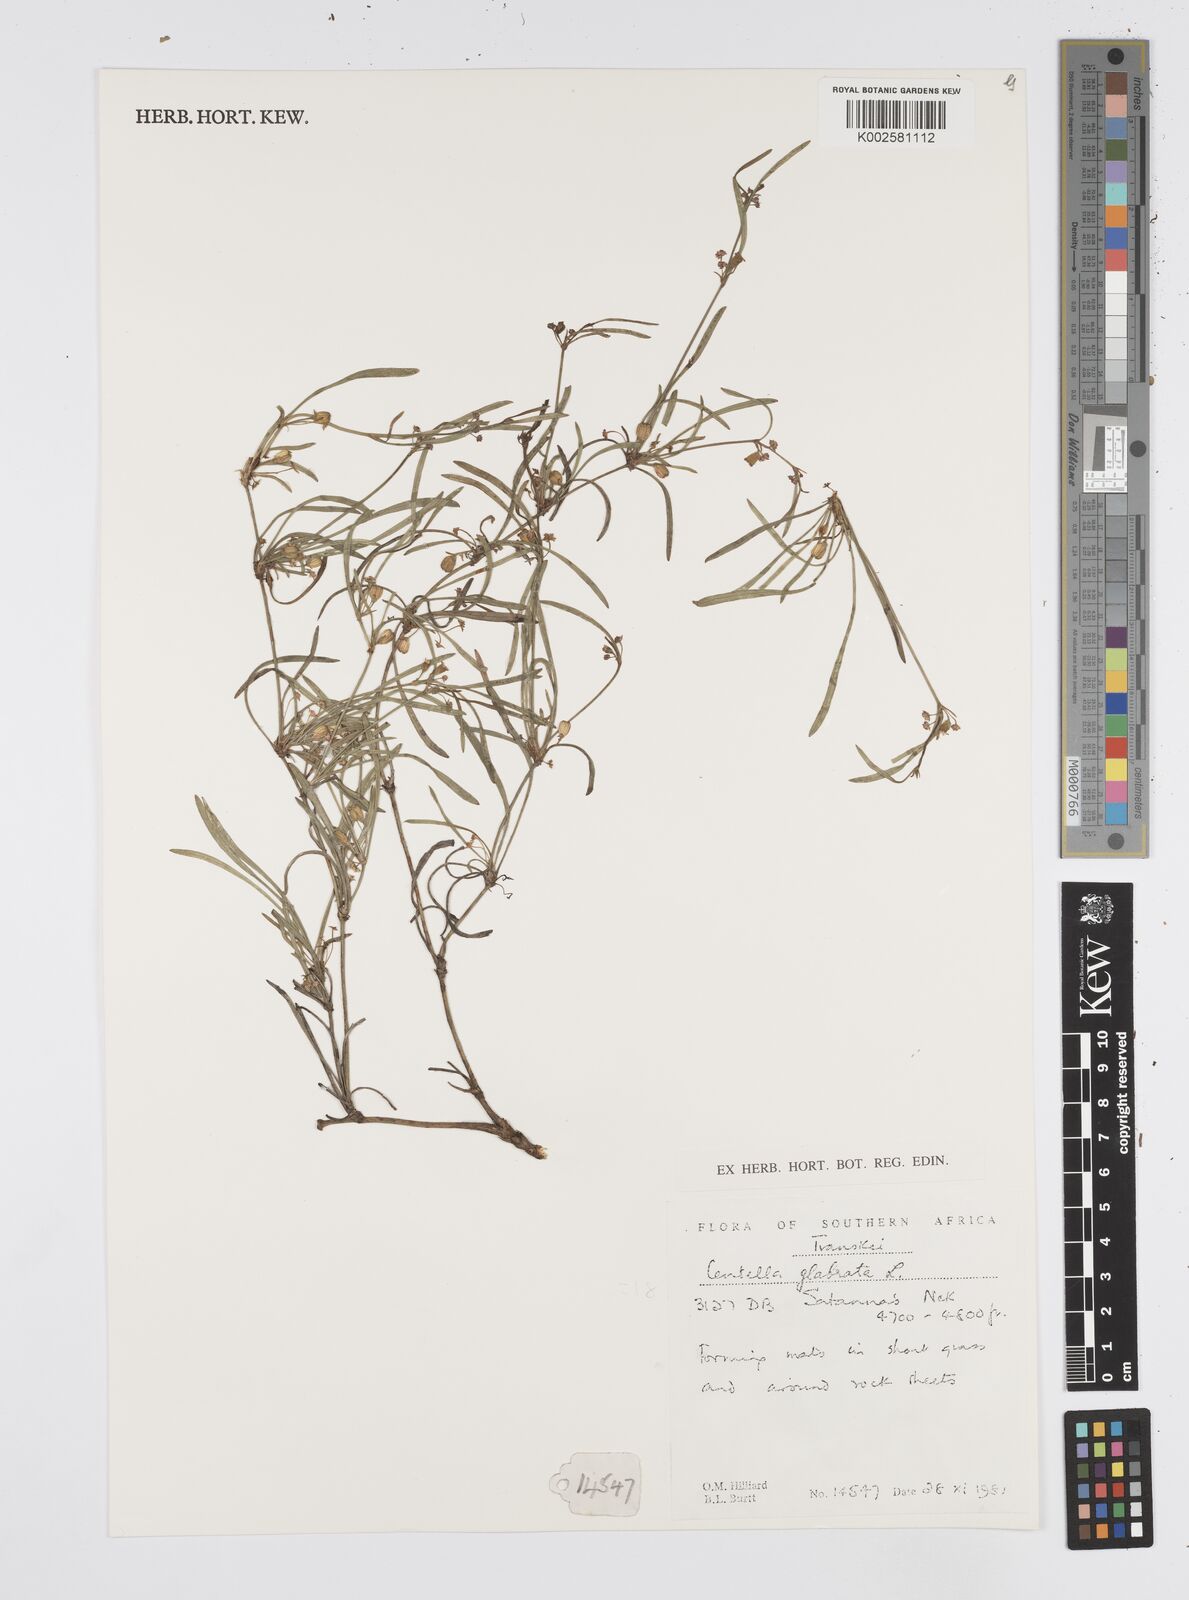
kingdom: Plantae
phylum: Tracheophyta
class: Magnoliopsida
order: Apiales
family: Apiaceae
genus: Centella
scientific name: Centella glabrata
